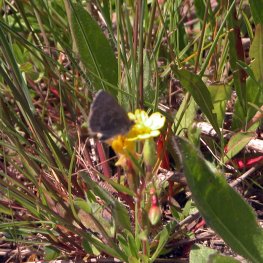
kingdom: Animalia
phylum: Arthropoda
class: Insecta
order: Lepidoptera
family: Lycaenidae
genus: Glaucopsyche
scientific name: Glaucopsyche lygdamus
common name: Silvery Blue
